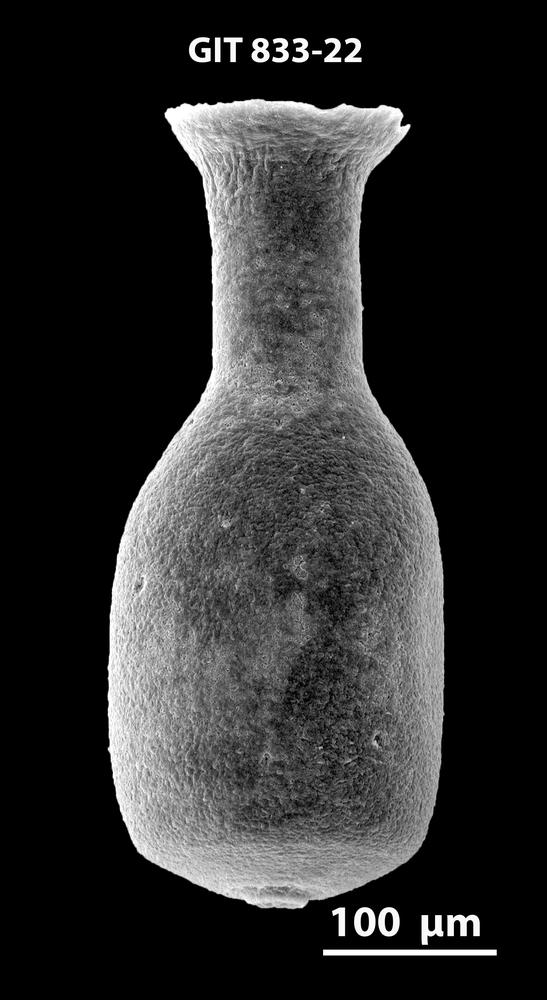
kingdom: Animalia
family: Lagenochitinidae
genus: Lagenochitina
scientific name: Lagenochitina
